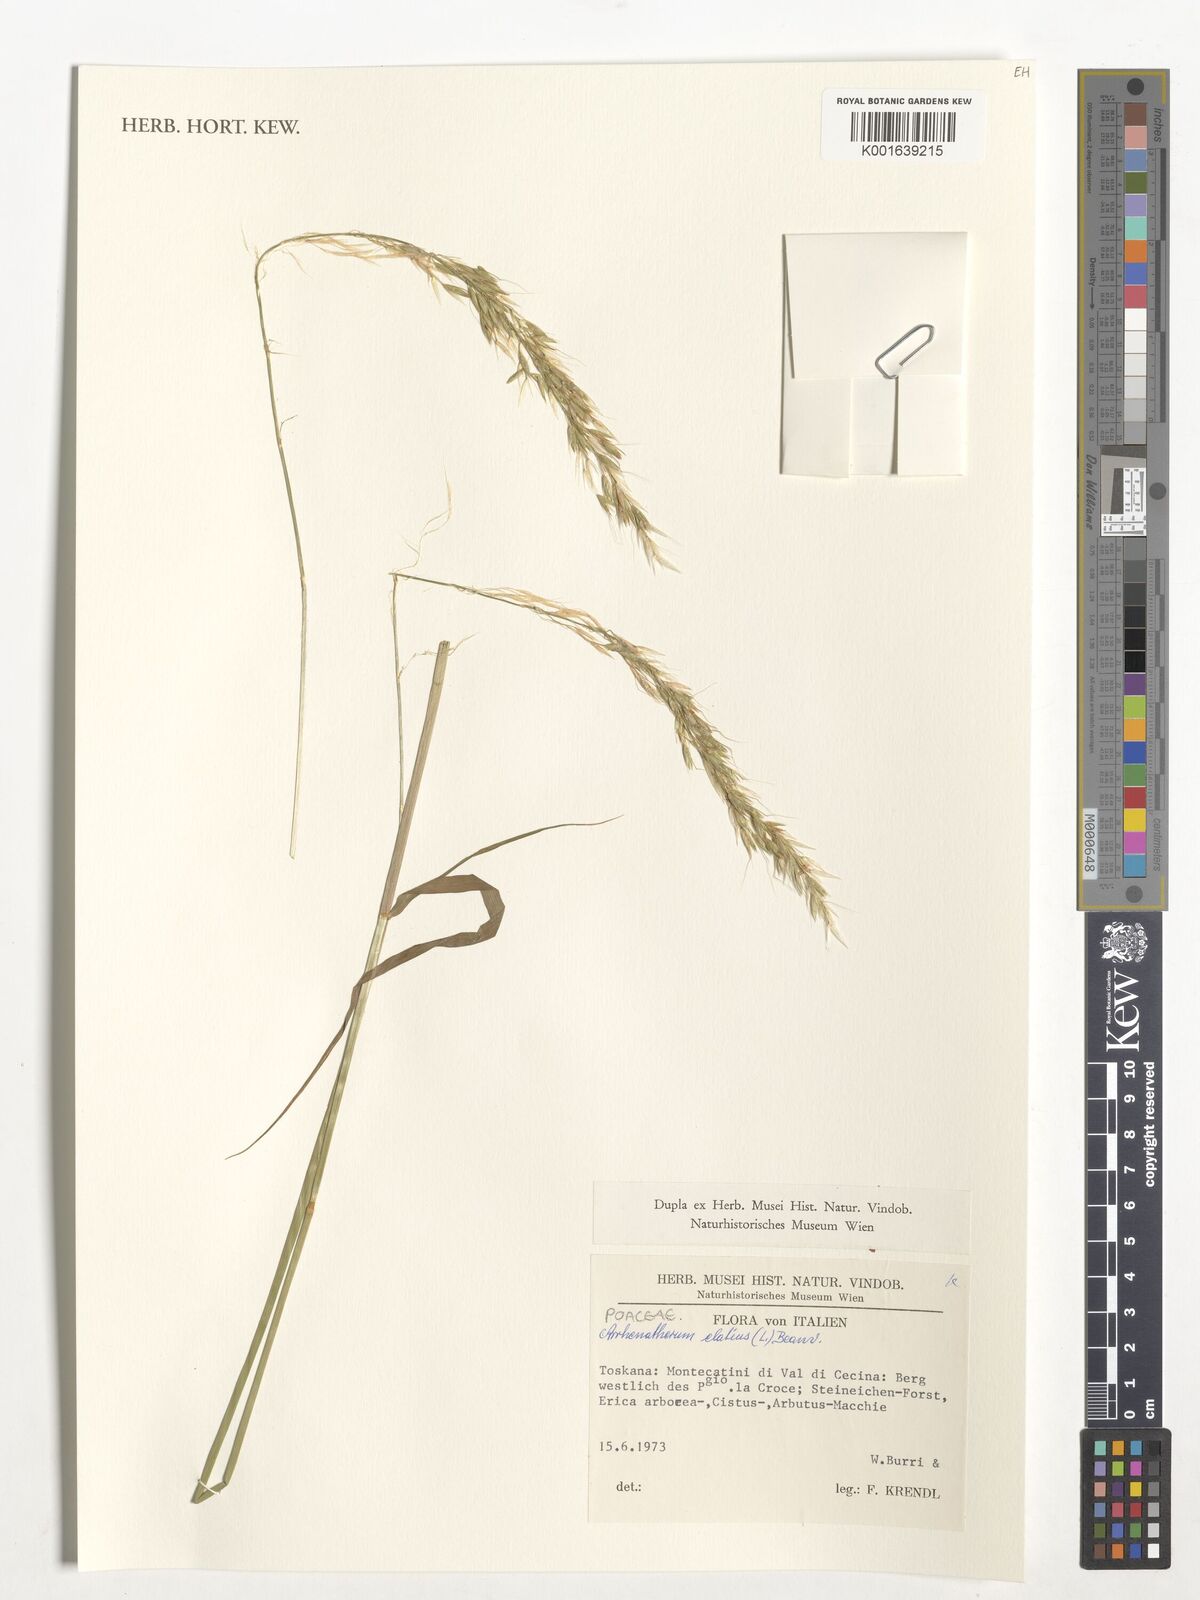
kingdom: Plantae
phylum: Tracheophyta
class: Liliopsida
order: Poales
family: Poaceae
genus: Arrhenatherum
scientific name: Arrhenatherum elatius
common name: Tall oatgrass
